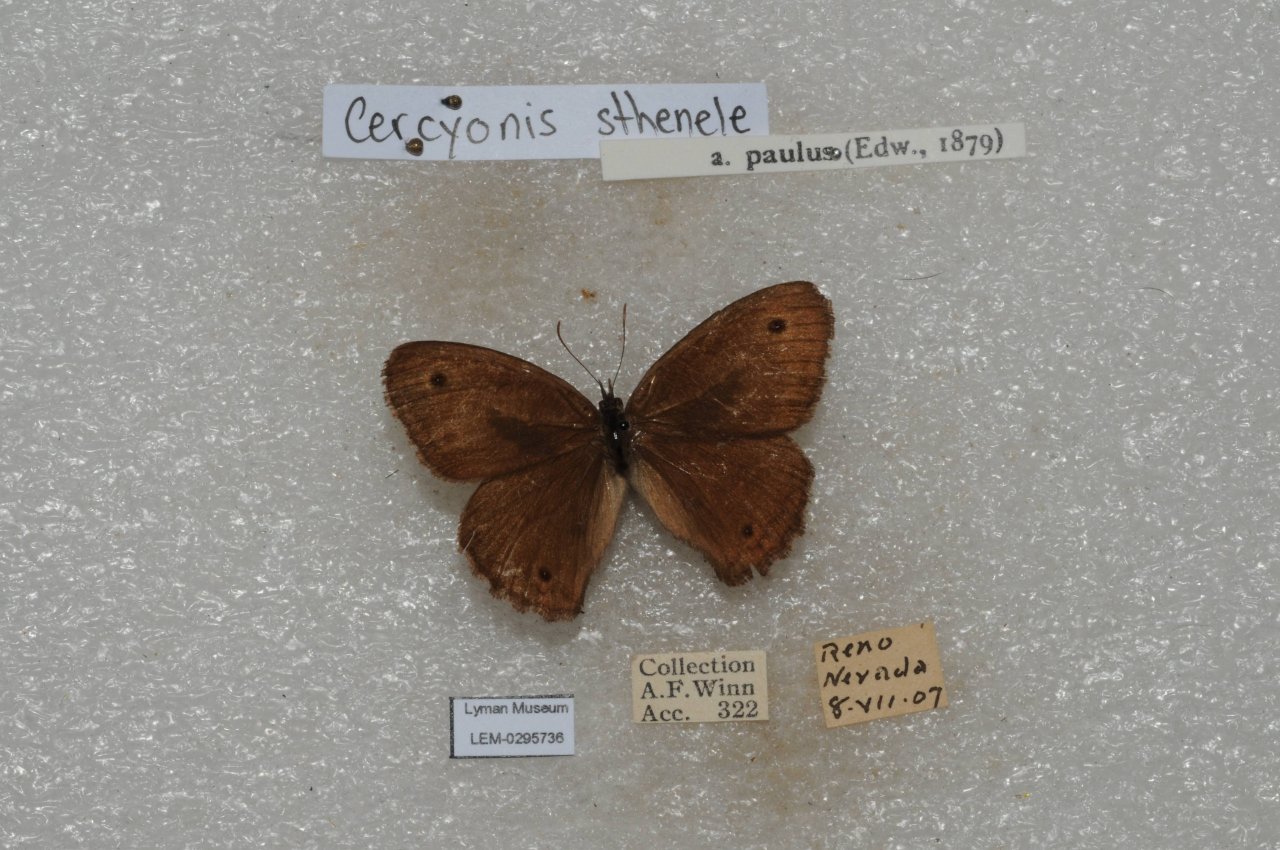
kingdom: Animalia
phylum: Arthropoda
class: Insecta
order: Lepidoptera
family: Nymphalidae
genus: Cercyonis
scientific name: Cercyonis sthenele
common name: Great Basin Wood-Nymph
